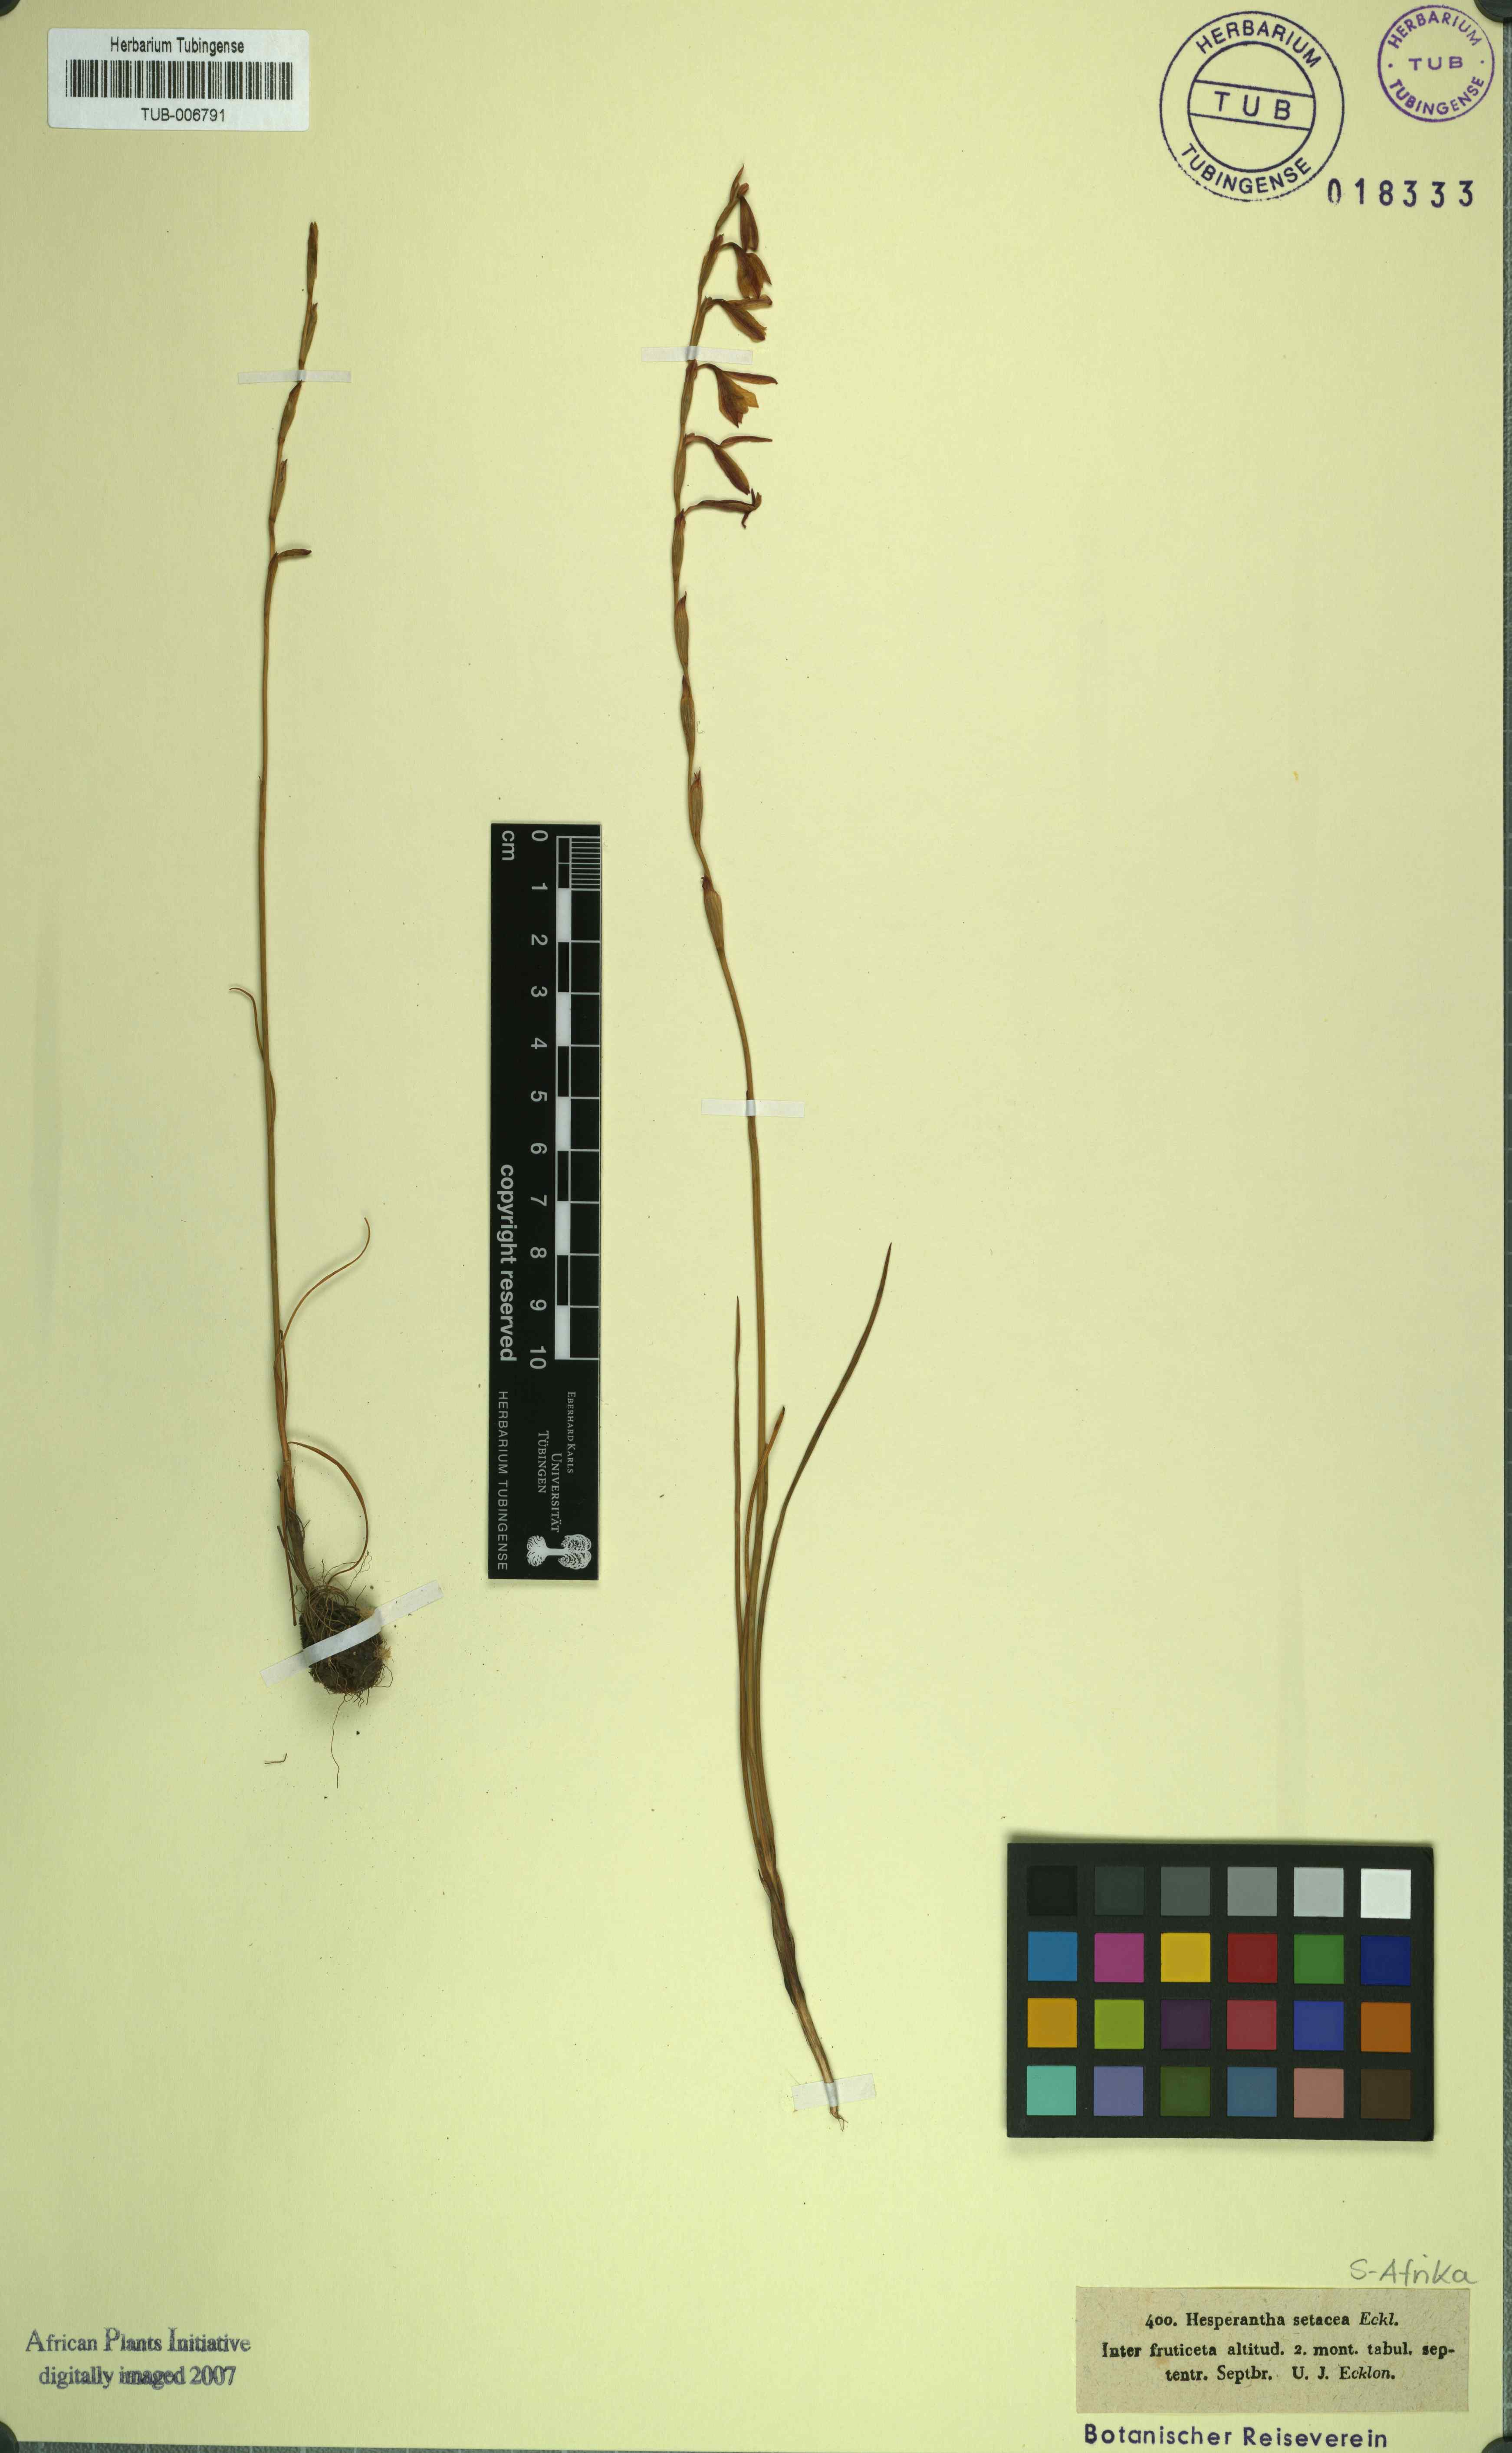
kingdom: Plantae
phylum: Tracheophyta
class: Liliopsida
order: Asparagales
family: Iridaceae
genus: Hesperantha
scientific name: Hesperantha radiata
